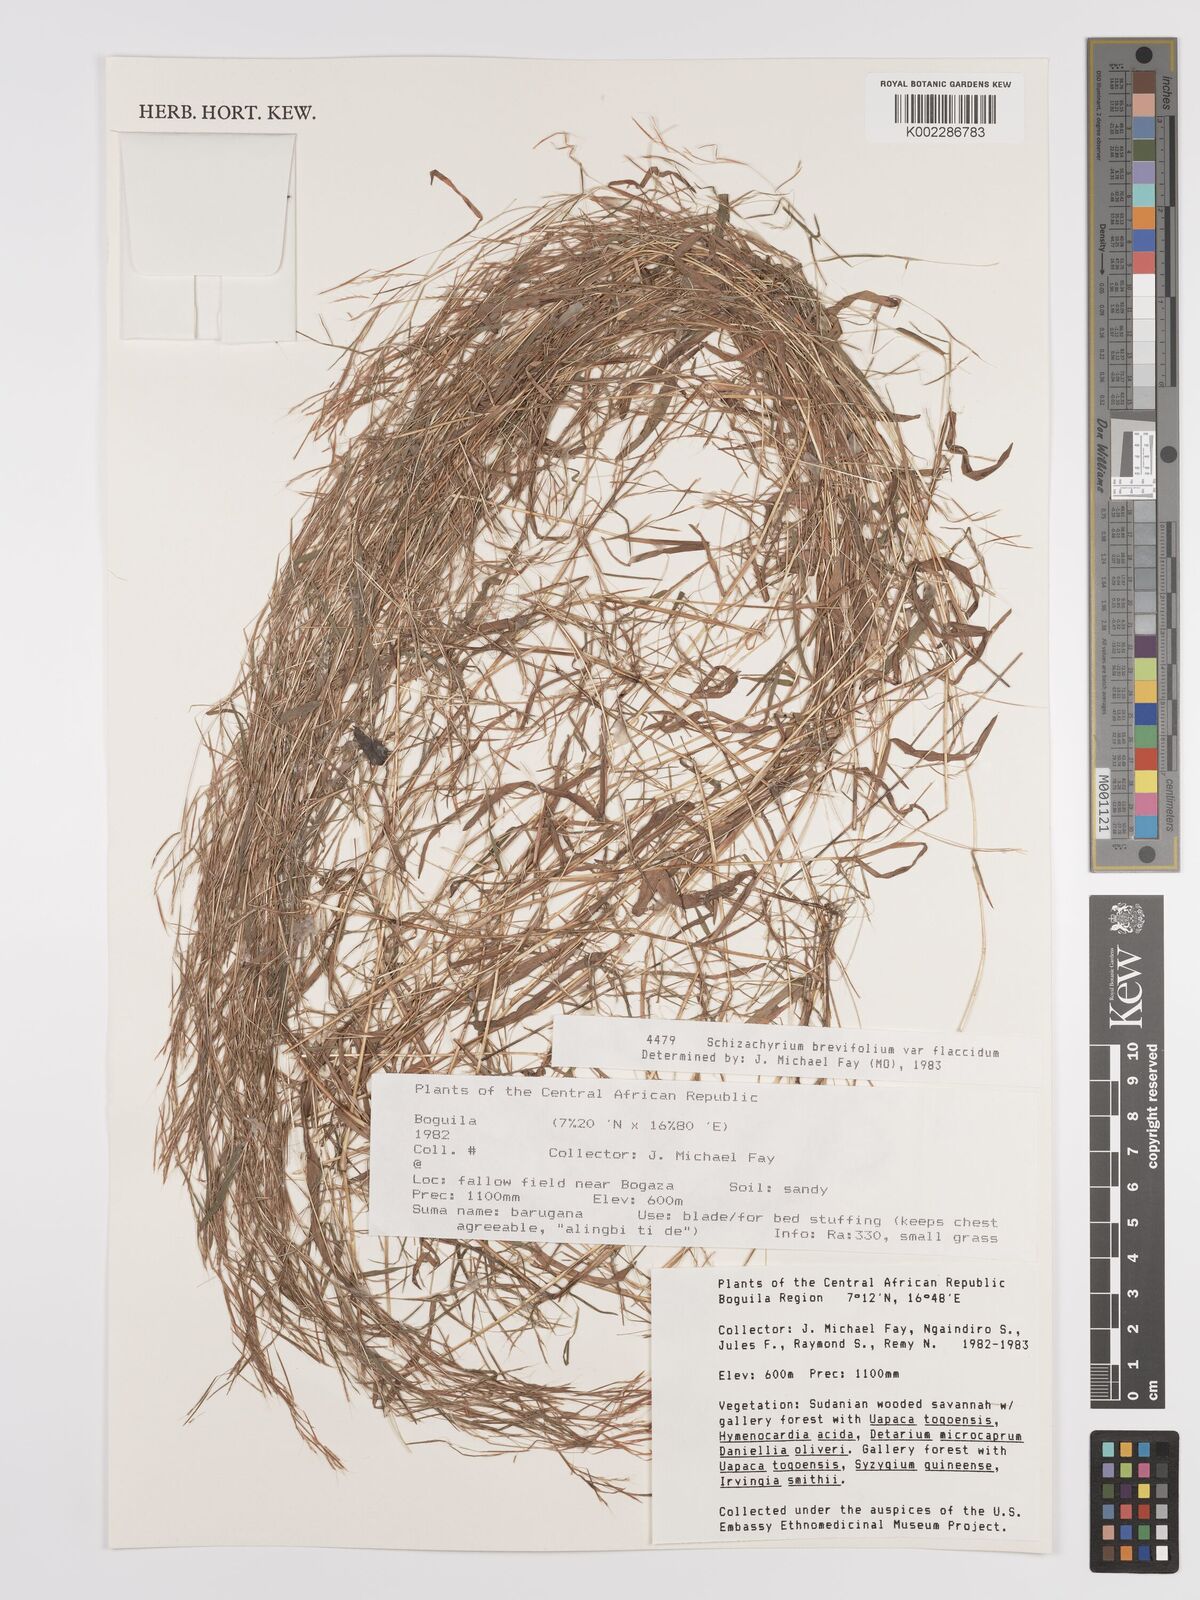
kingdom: Plantae
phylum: Tracheophyta
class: Liliopsida
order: Poales
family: Poaceae
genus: Schizachyrium
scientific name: Schizachyrium brevifolium
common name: Serillo dulce
